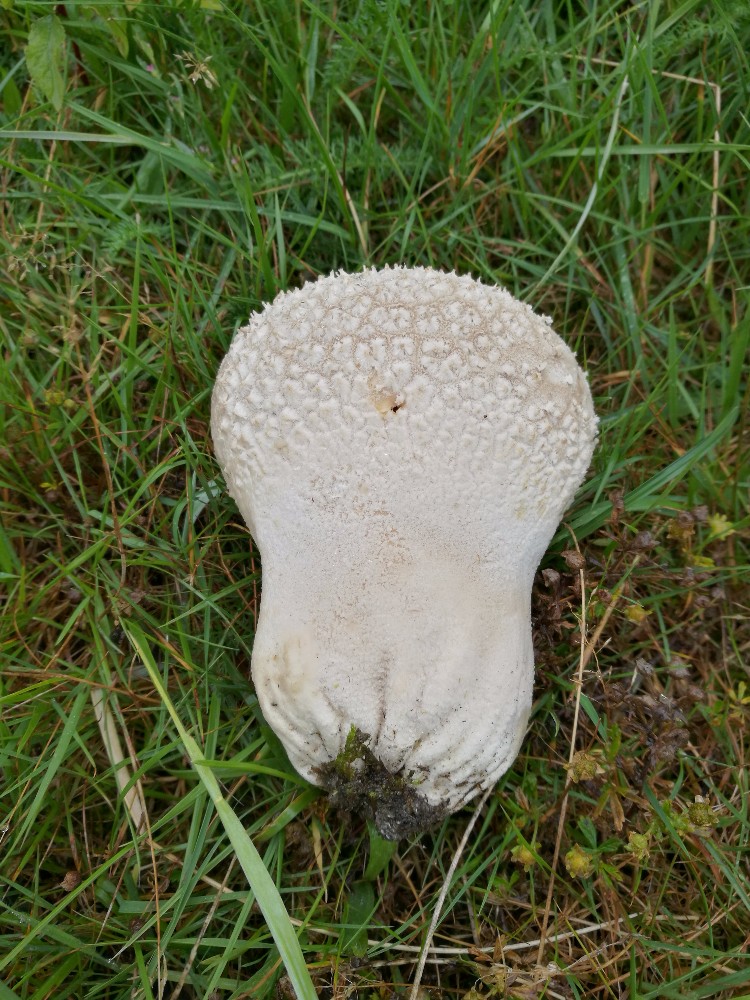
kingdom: Fungi
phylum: Basidiomycota
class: Agaricomycetes
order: Agaricales
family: Lycoperdaceae
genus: Bovistella
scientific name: Bovistella utriformis
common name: skællet støvbold
